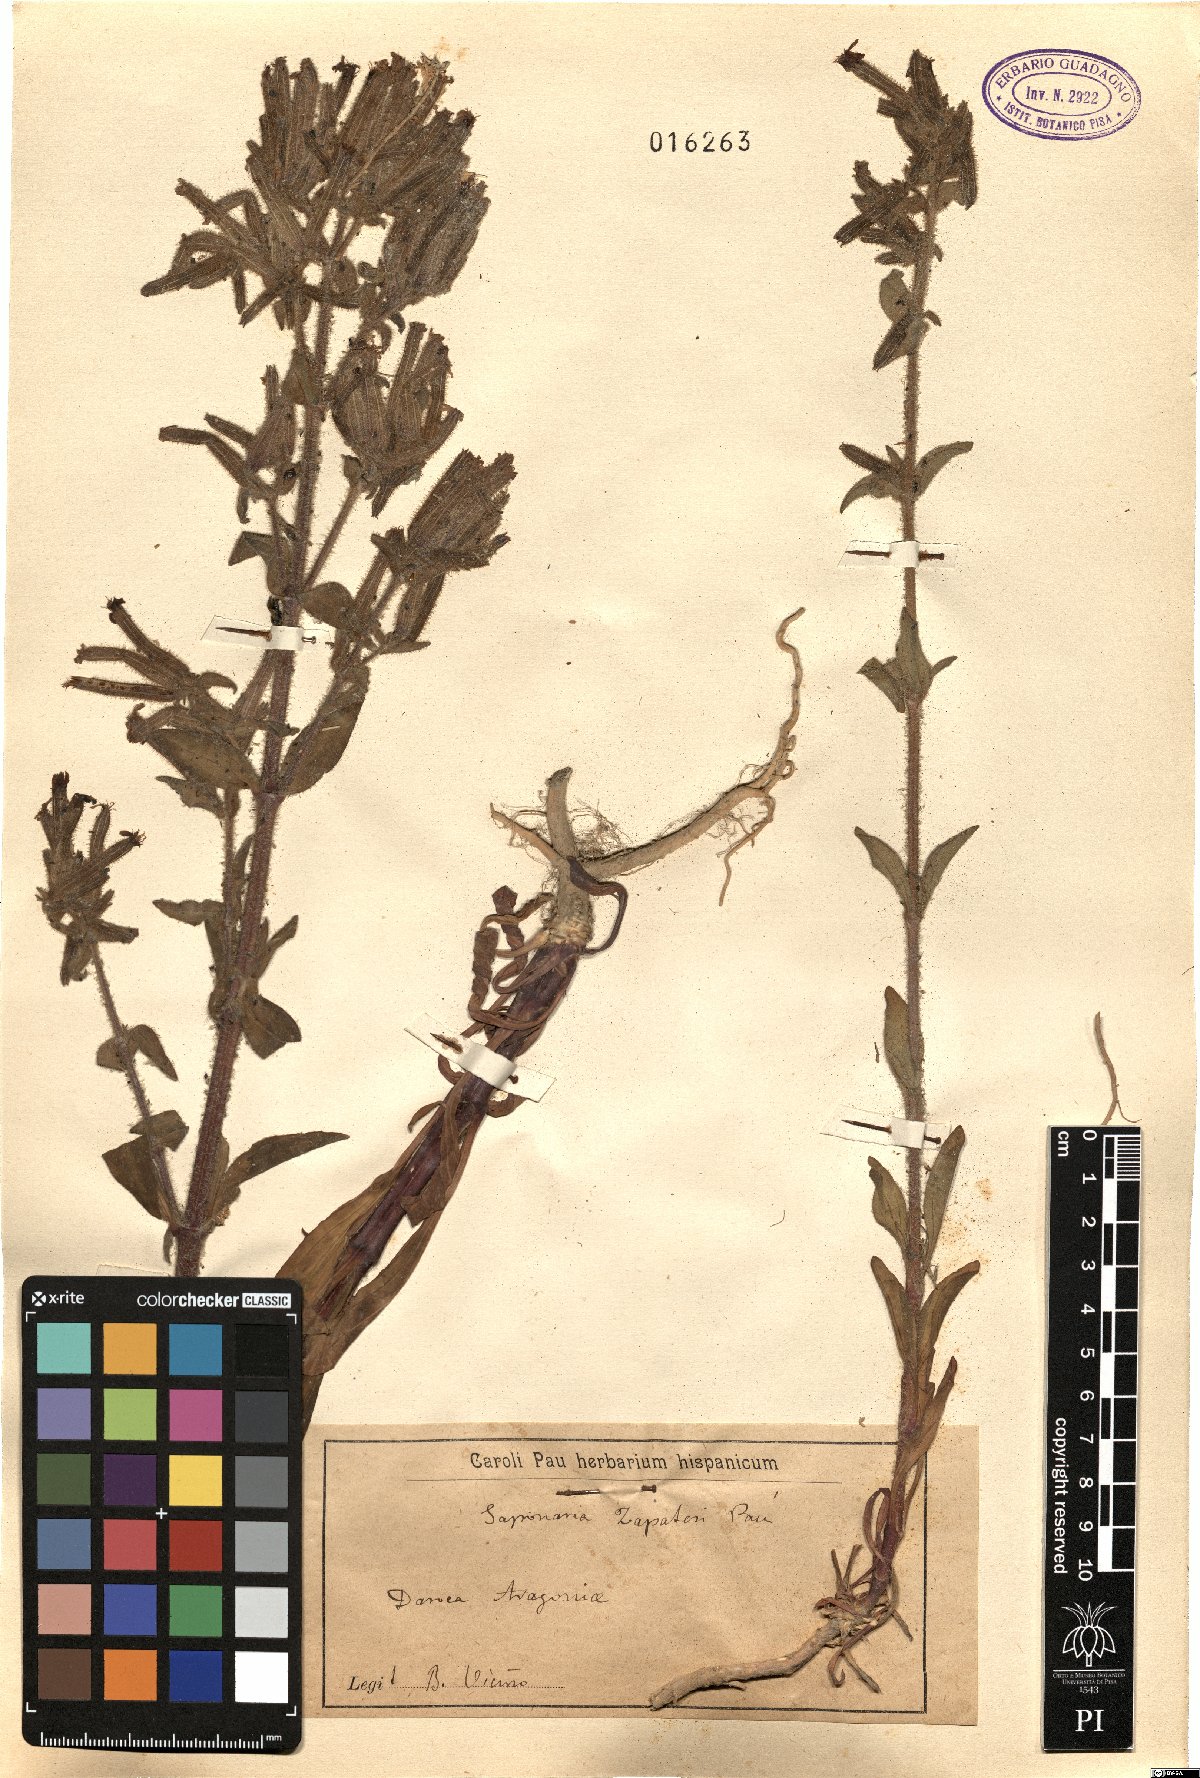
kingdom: Plantae
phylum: Tracheophyta
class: Magnoliopsida
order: Caryophyllales
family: Caryophyllaceae
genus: Saponaria
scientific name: Saponaria glutinosa
